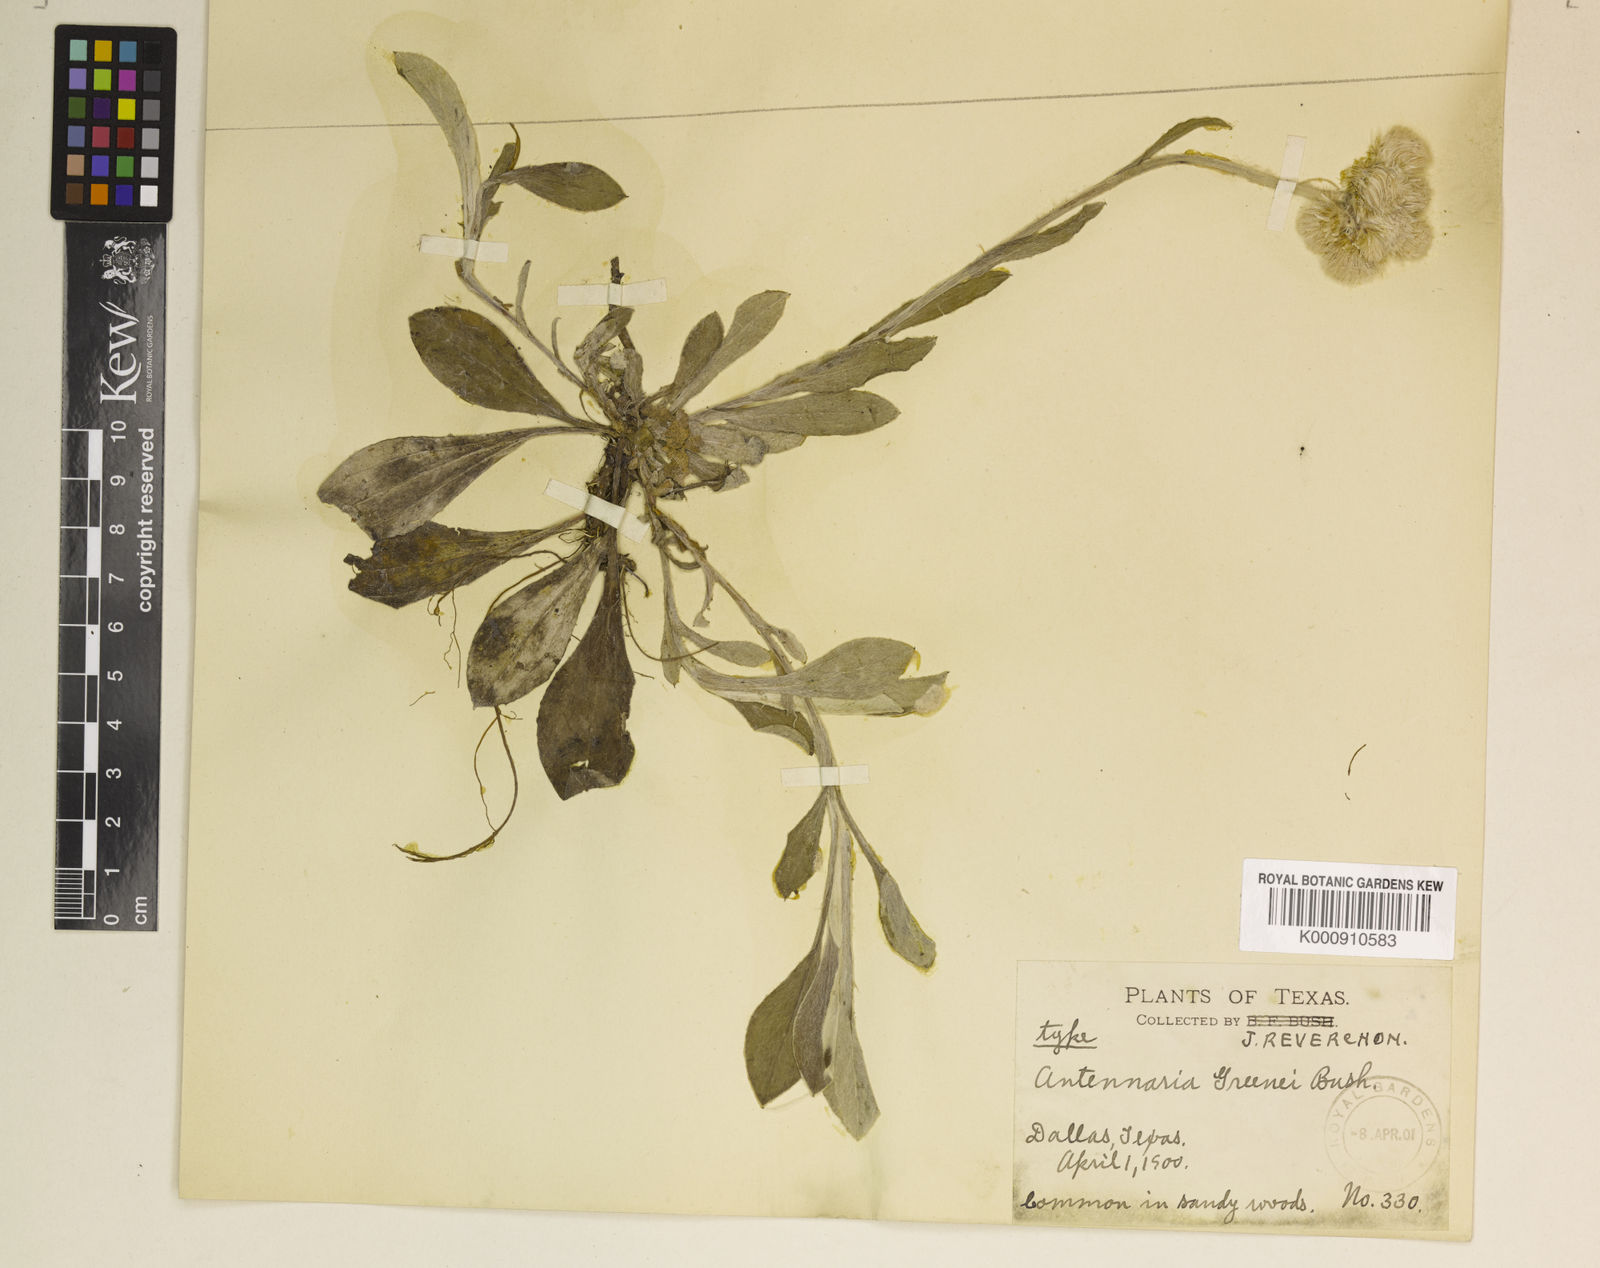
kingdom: Plantae
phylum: Tracheophyta
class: Magnoliopsida
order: Asterales
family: Asteraceae
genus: Antennaria
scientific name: Antennaria parlinii
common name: Parlin's pussytoes
